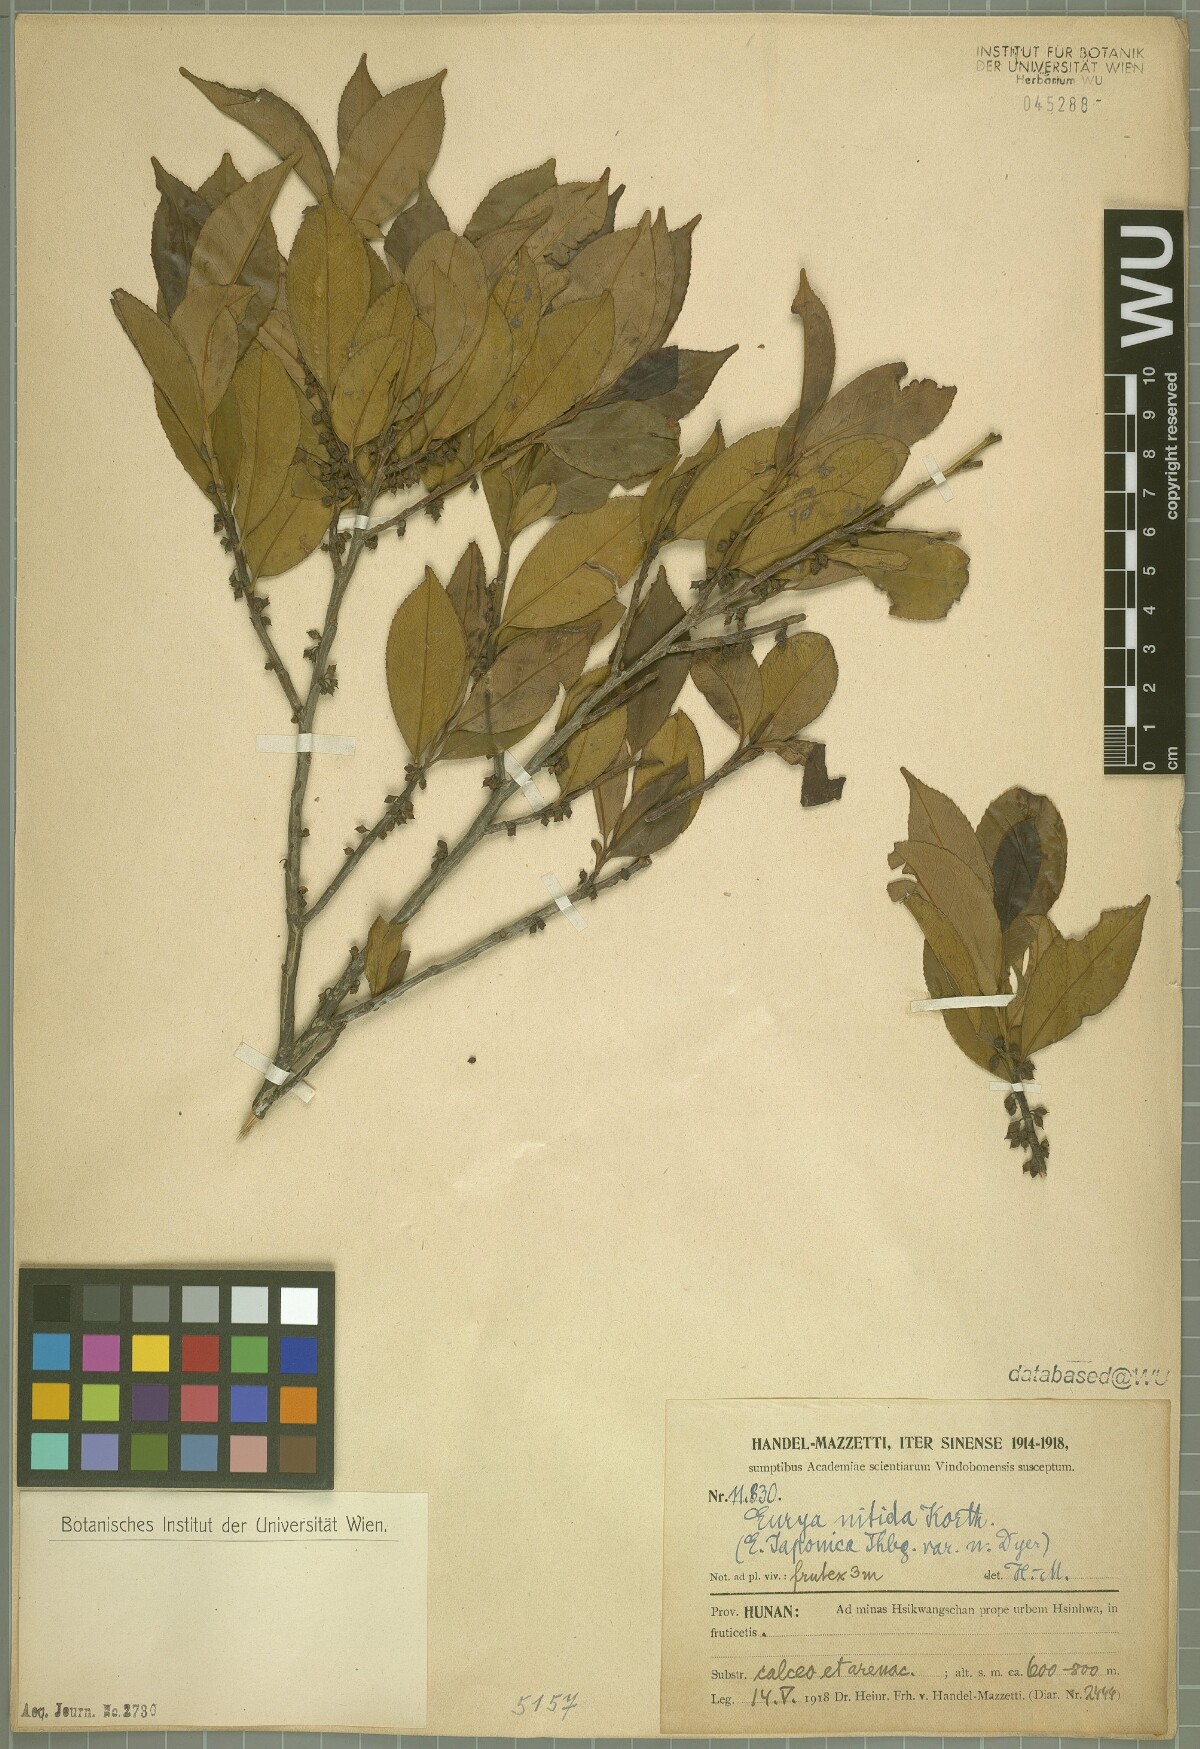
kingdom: Plantae
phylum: Tracheophyta
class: Magnoliopsida
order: Ericales
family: Pentaphylacaceae
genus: Eurya
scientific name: Eurya nitida
